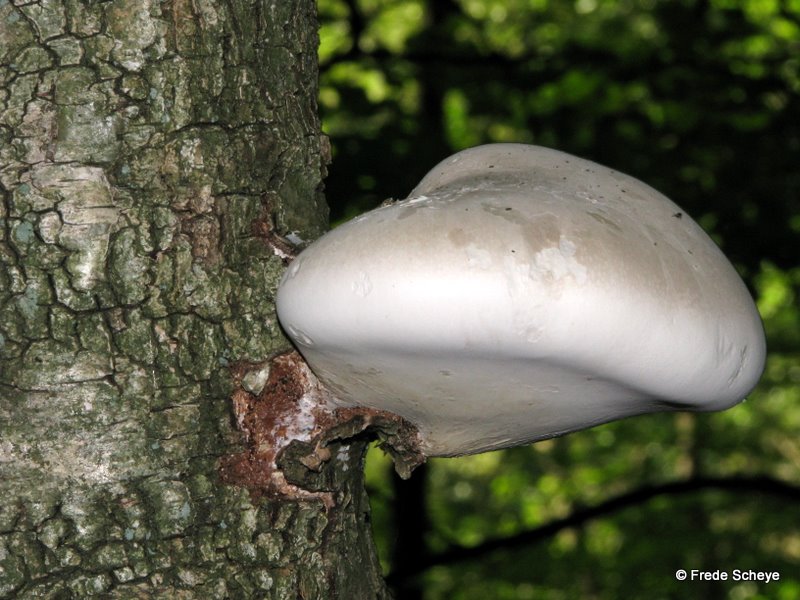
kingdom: Fungi
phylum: Basidiomycota
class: Agaricomycetes
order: Polyporales
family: Fomitopsidaceae
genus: Fomitopsis
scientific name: Fomitopsis betulina
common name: birkeporesvamp
